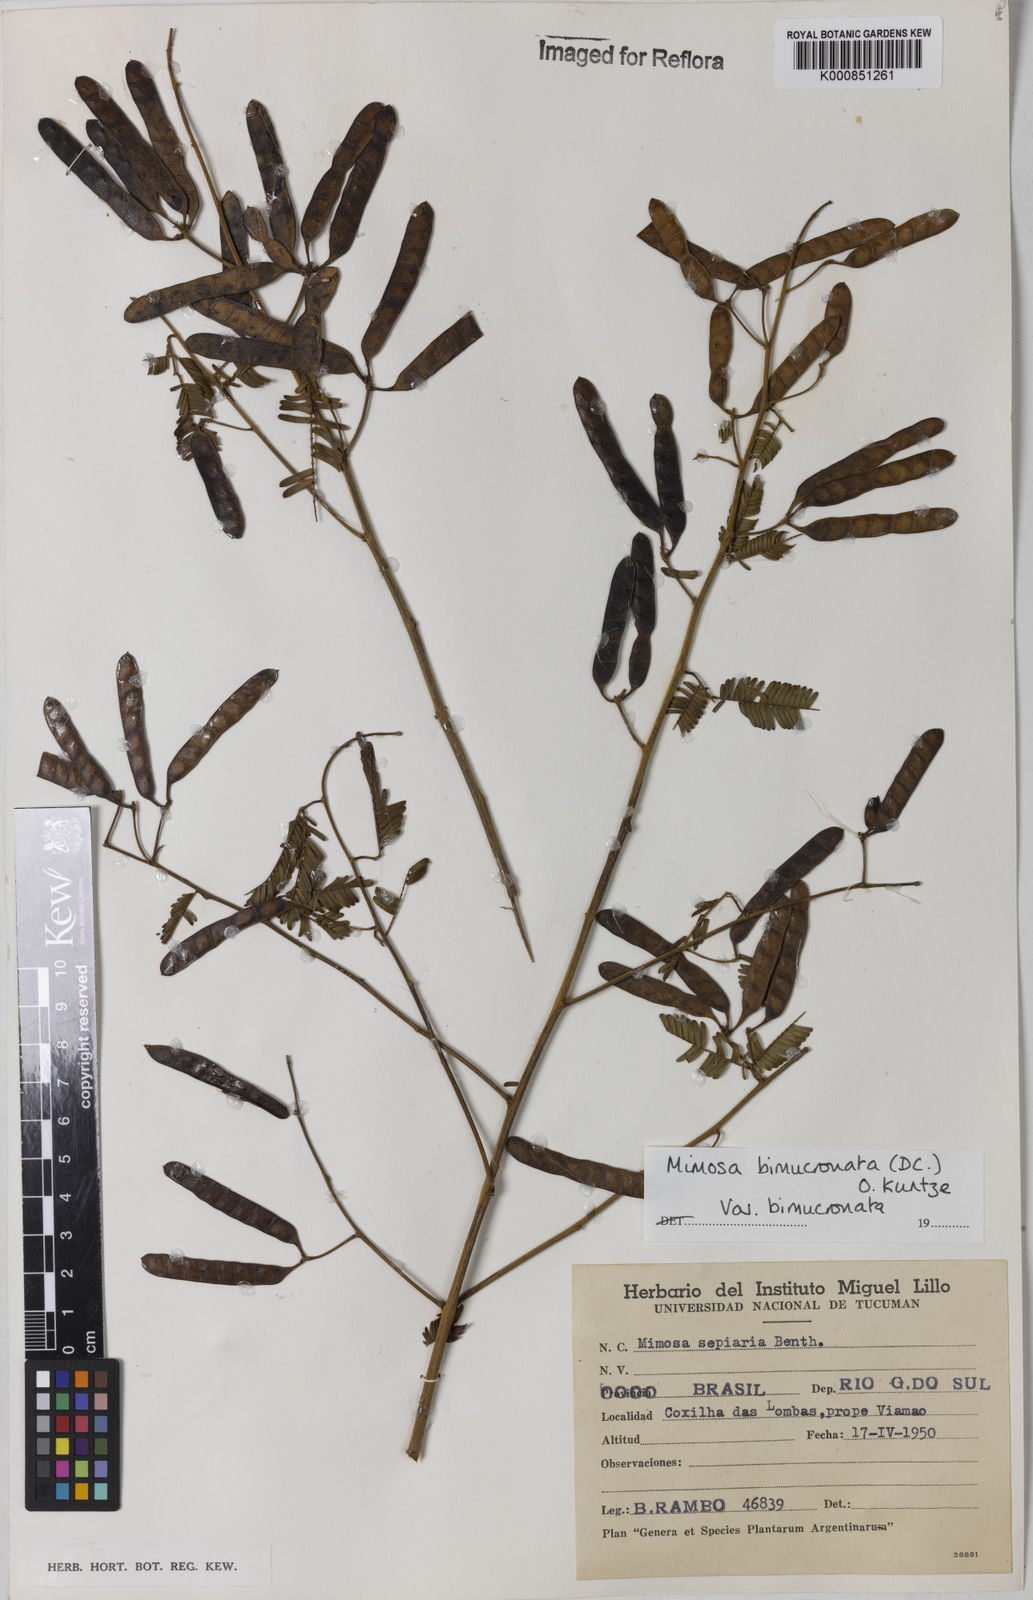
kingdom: Plantae
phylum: Tracheophyta
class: Magnoliopsida
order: Fabales
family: Fabaceae
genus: Mimosa
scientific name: Mimosa bimucronata
